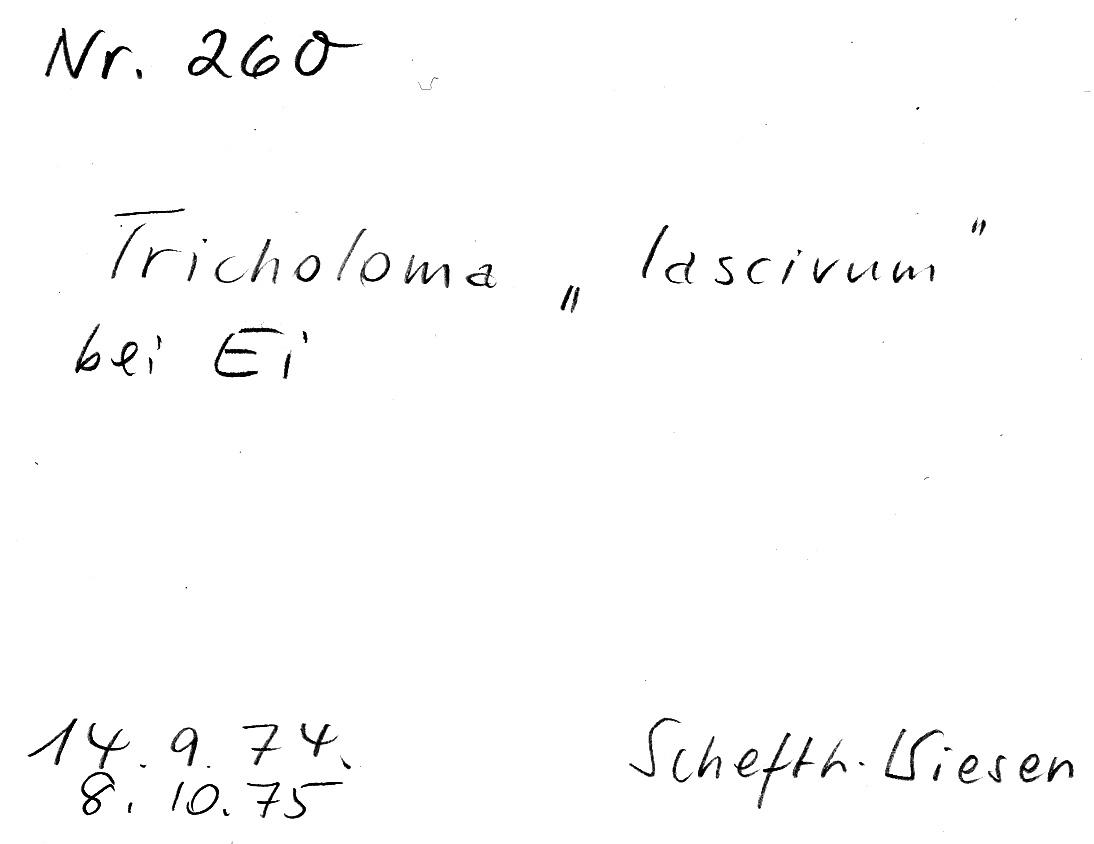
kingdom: Fungi
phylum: Basidiomycota
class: Agaricomycetes
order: Agaricales
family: Tricholomataceae
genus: Tricholoma
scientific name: Tricholoma lascivum
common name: Aromatic knight
